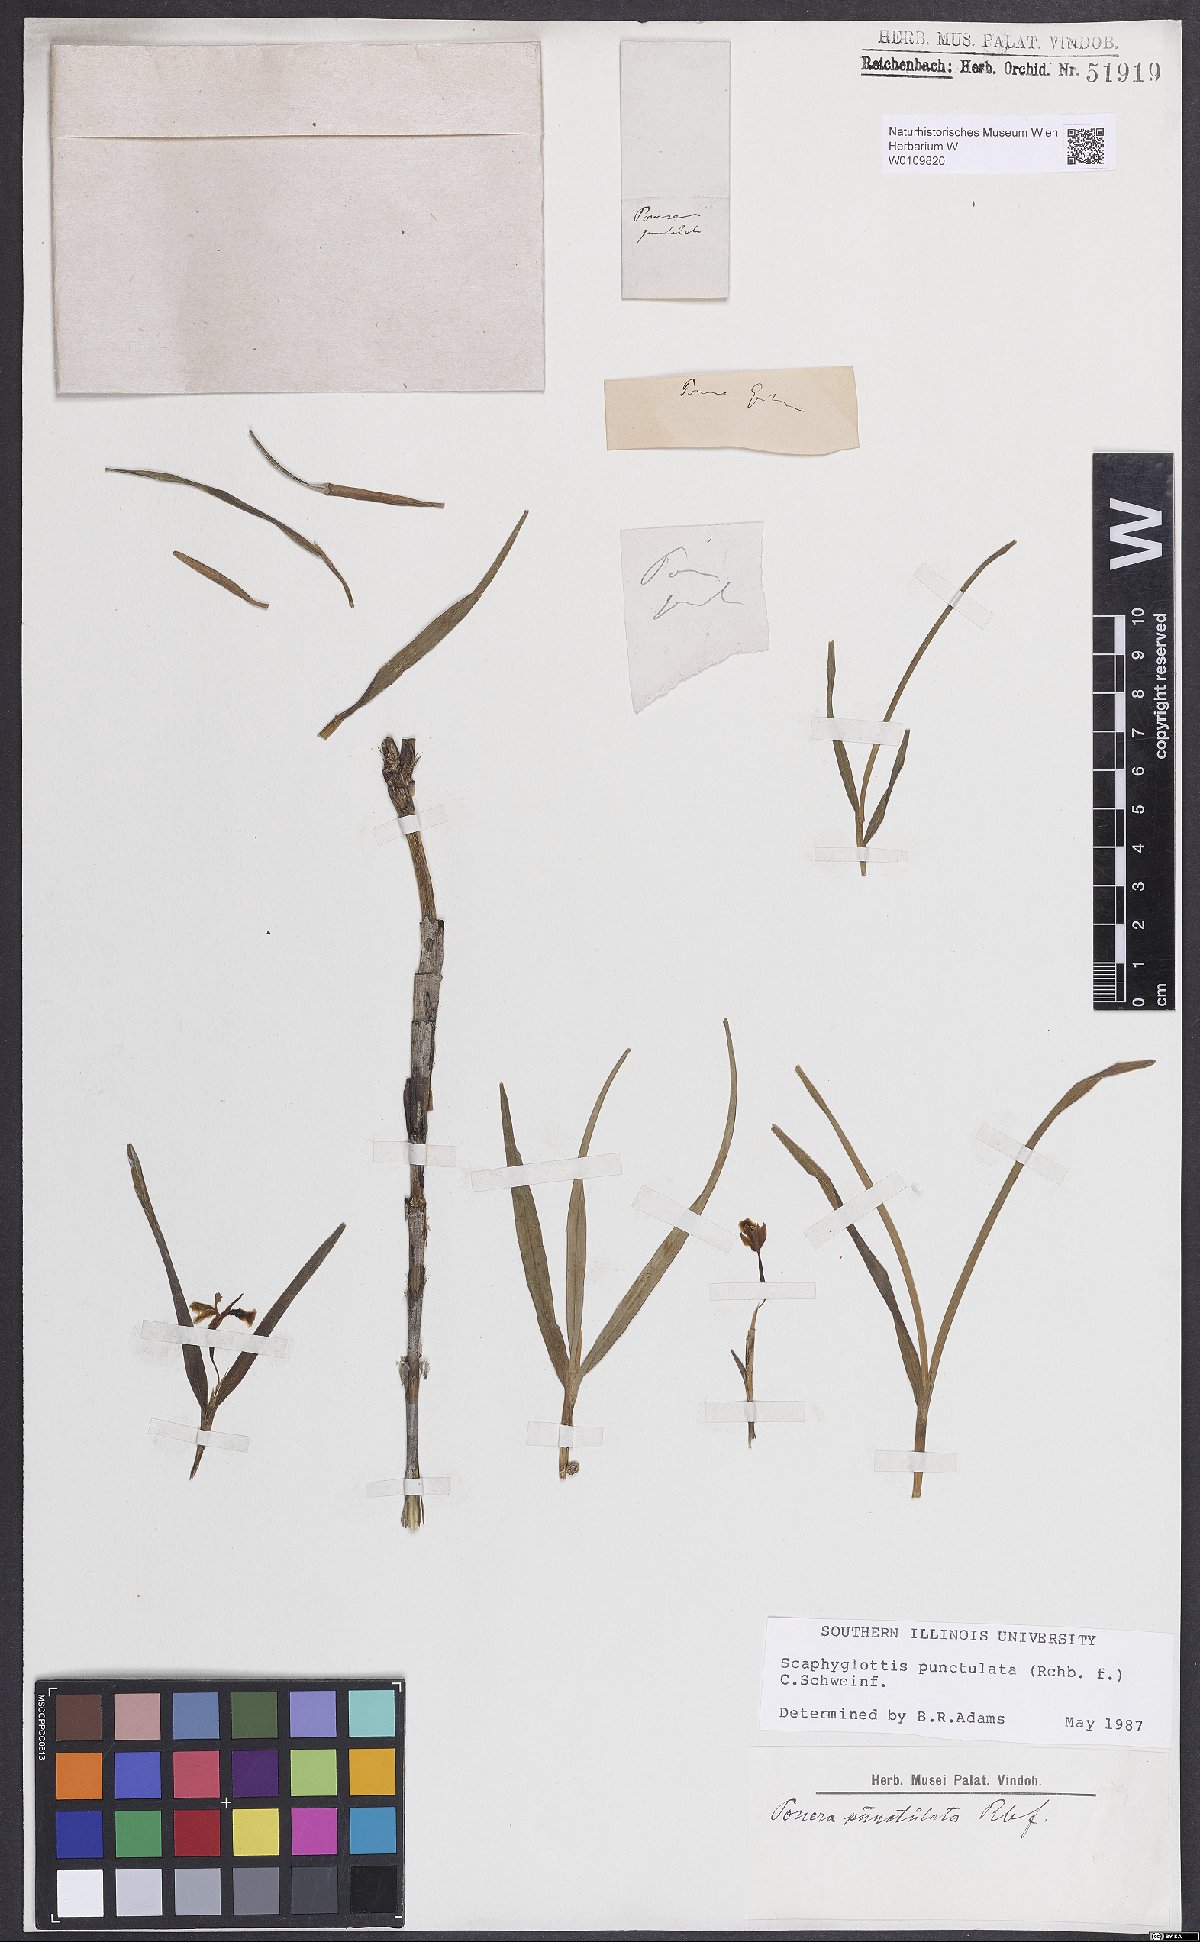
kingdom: Plantae
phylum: Tracheophyta
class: Liliopsida
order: Asparagales
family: Orchidaceae
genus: Scaphyglottis
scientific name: Scaphyglottis punctulata
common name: Dotted orchid
